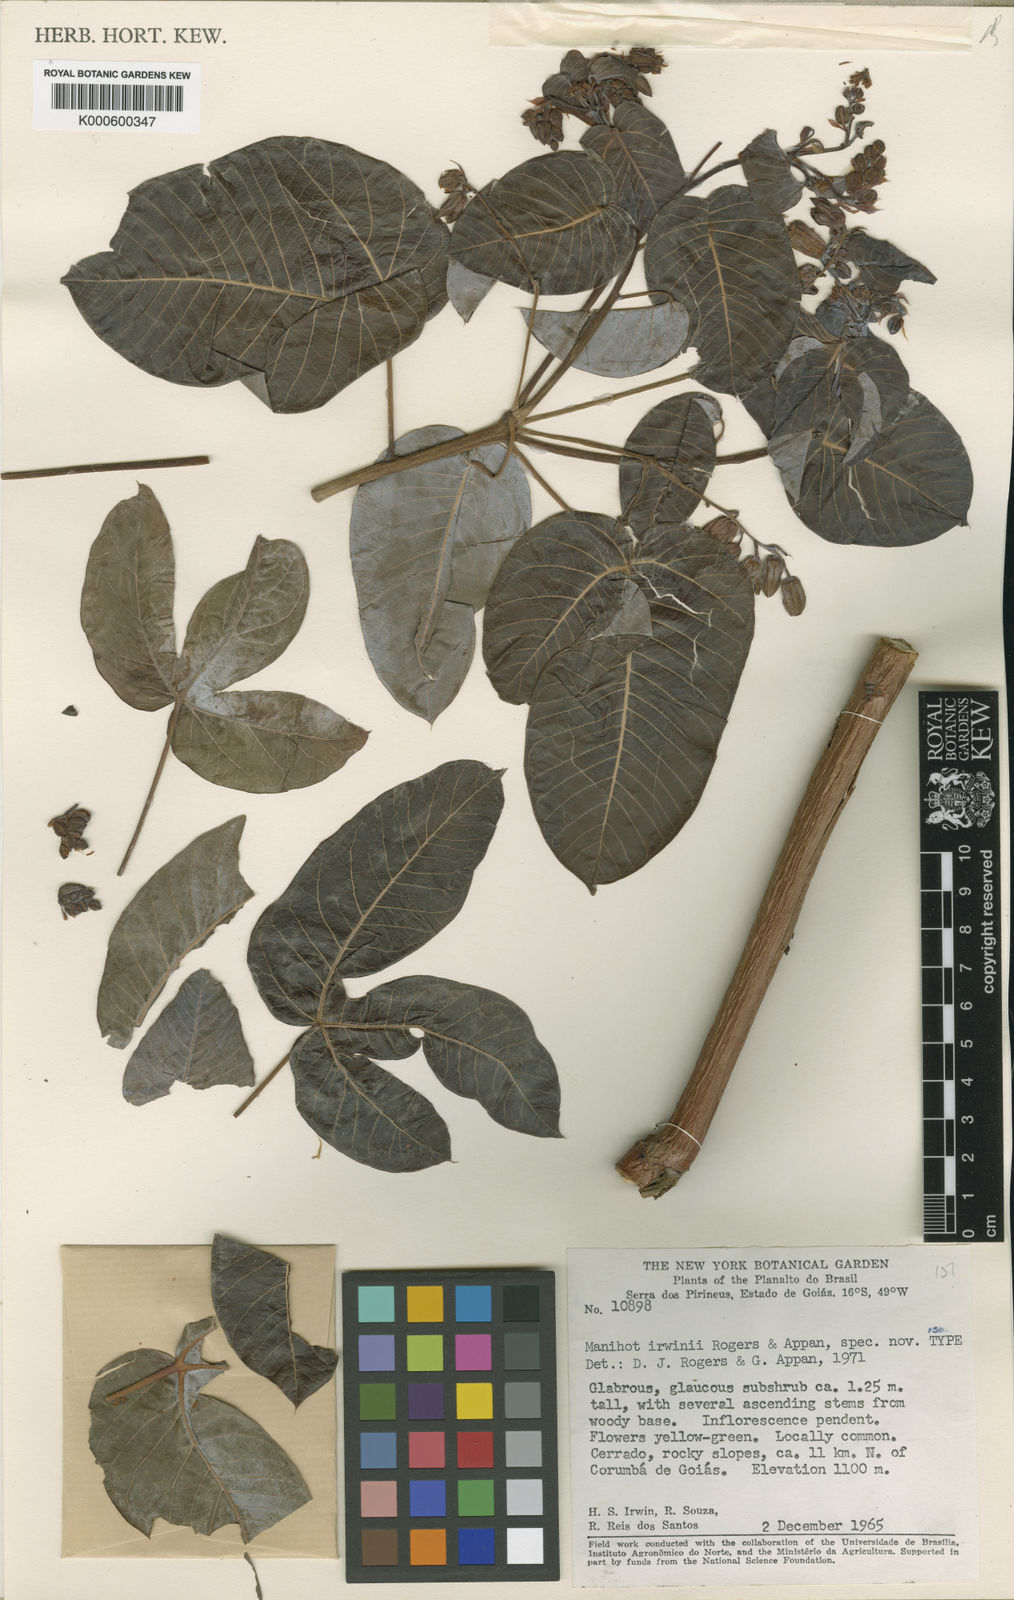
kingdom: Plantae
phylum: Tracheophyta
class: Magnoliopsida
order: Malpighiales
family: Euphorbiaceae
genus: Manihot
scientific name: Manihot irwinii
